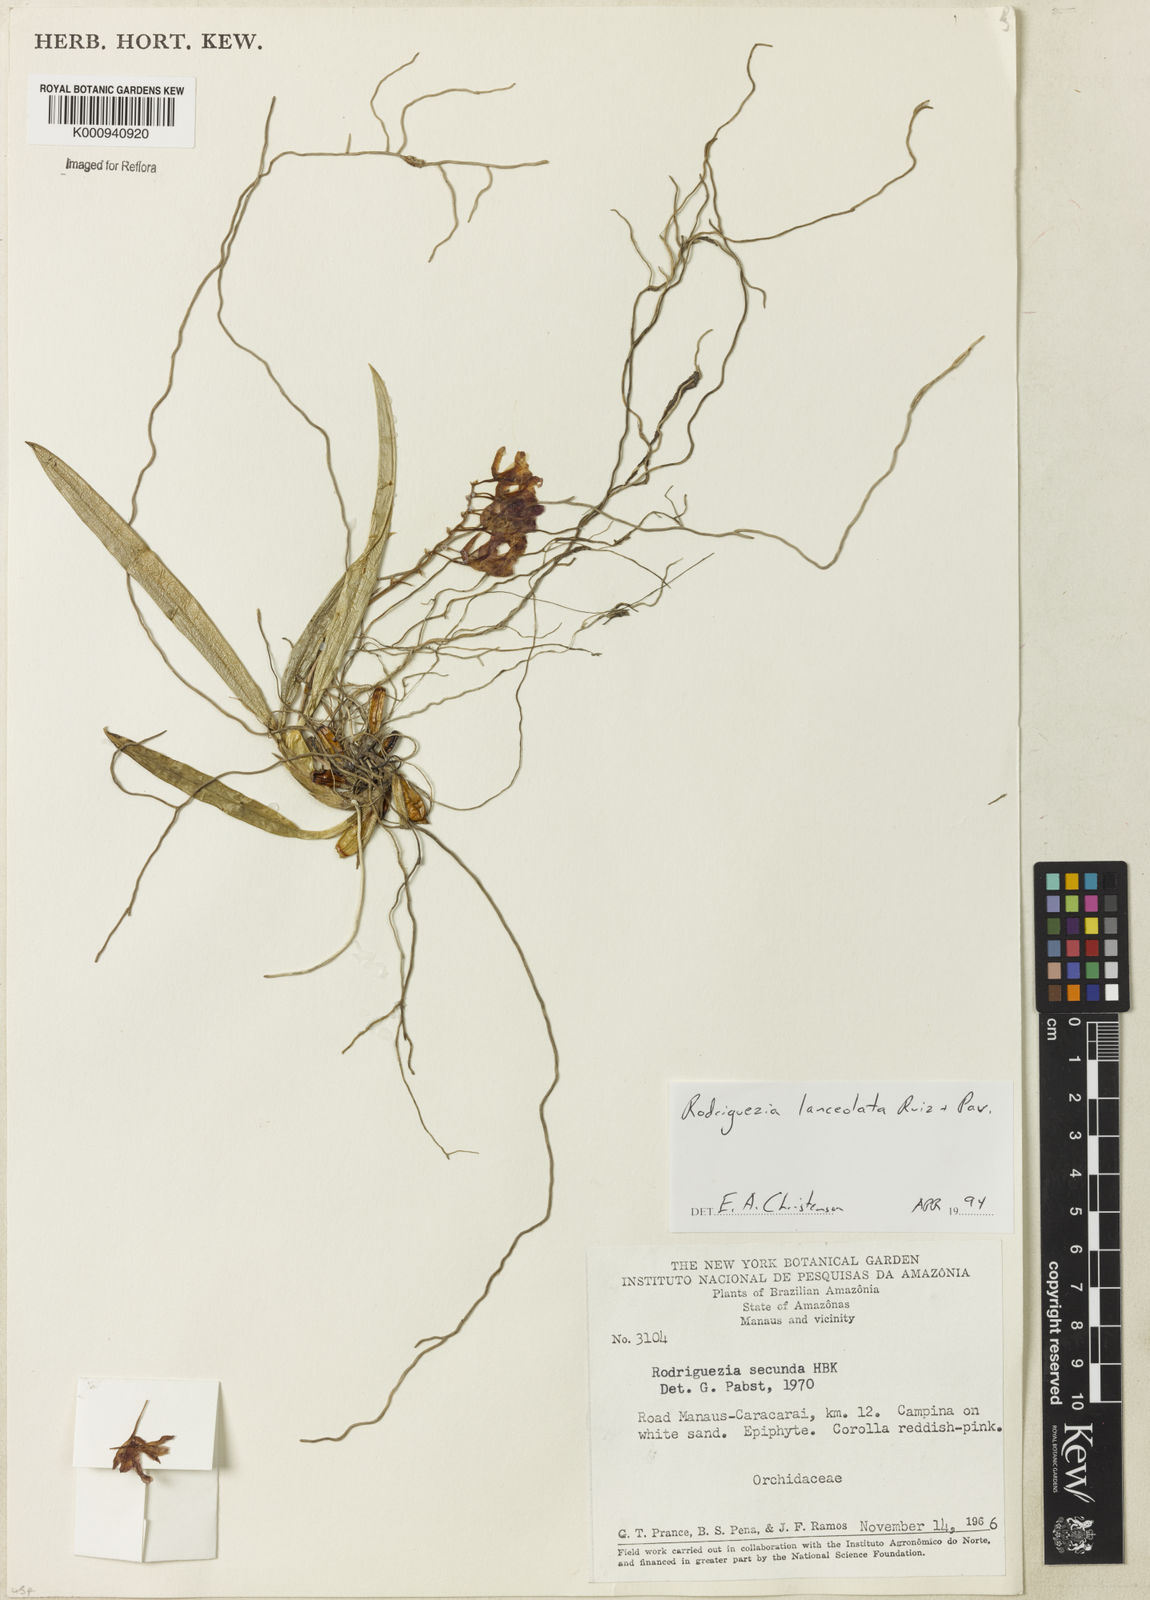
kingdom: Plantae
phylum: Tracheophyta
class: Liliopsida
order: Asparagales
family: Orchidaceae
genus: Rodriguezia
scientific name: Rodriguezia lanceolata
